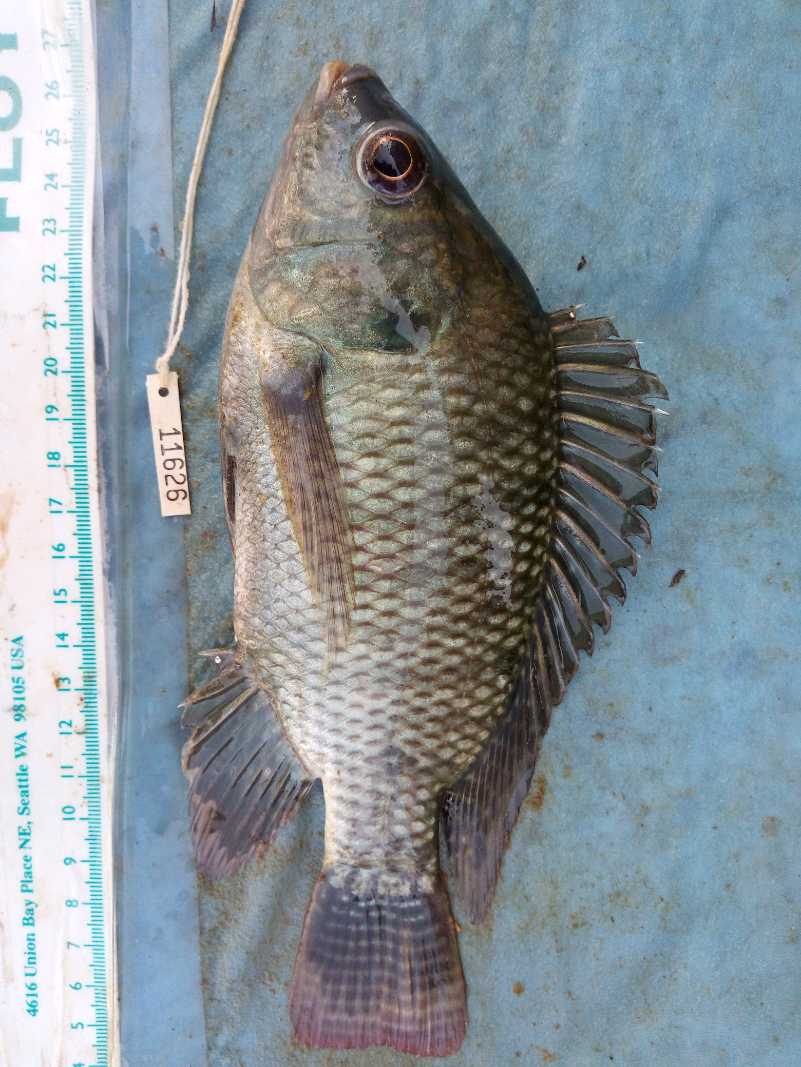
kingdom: Animalia
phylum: Chordata
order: Perciformes
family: Cichlidae
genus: Oreochromis
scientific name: Oreochromis niloticus
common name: Nile tilapia
